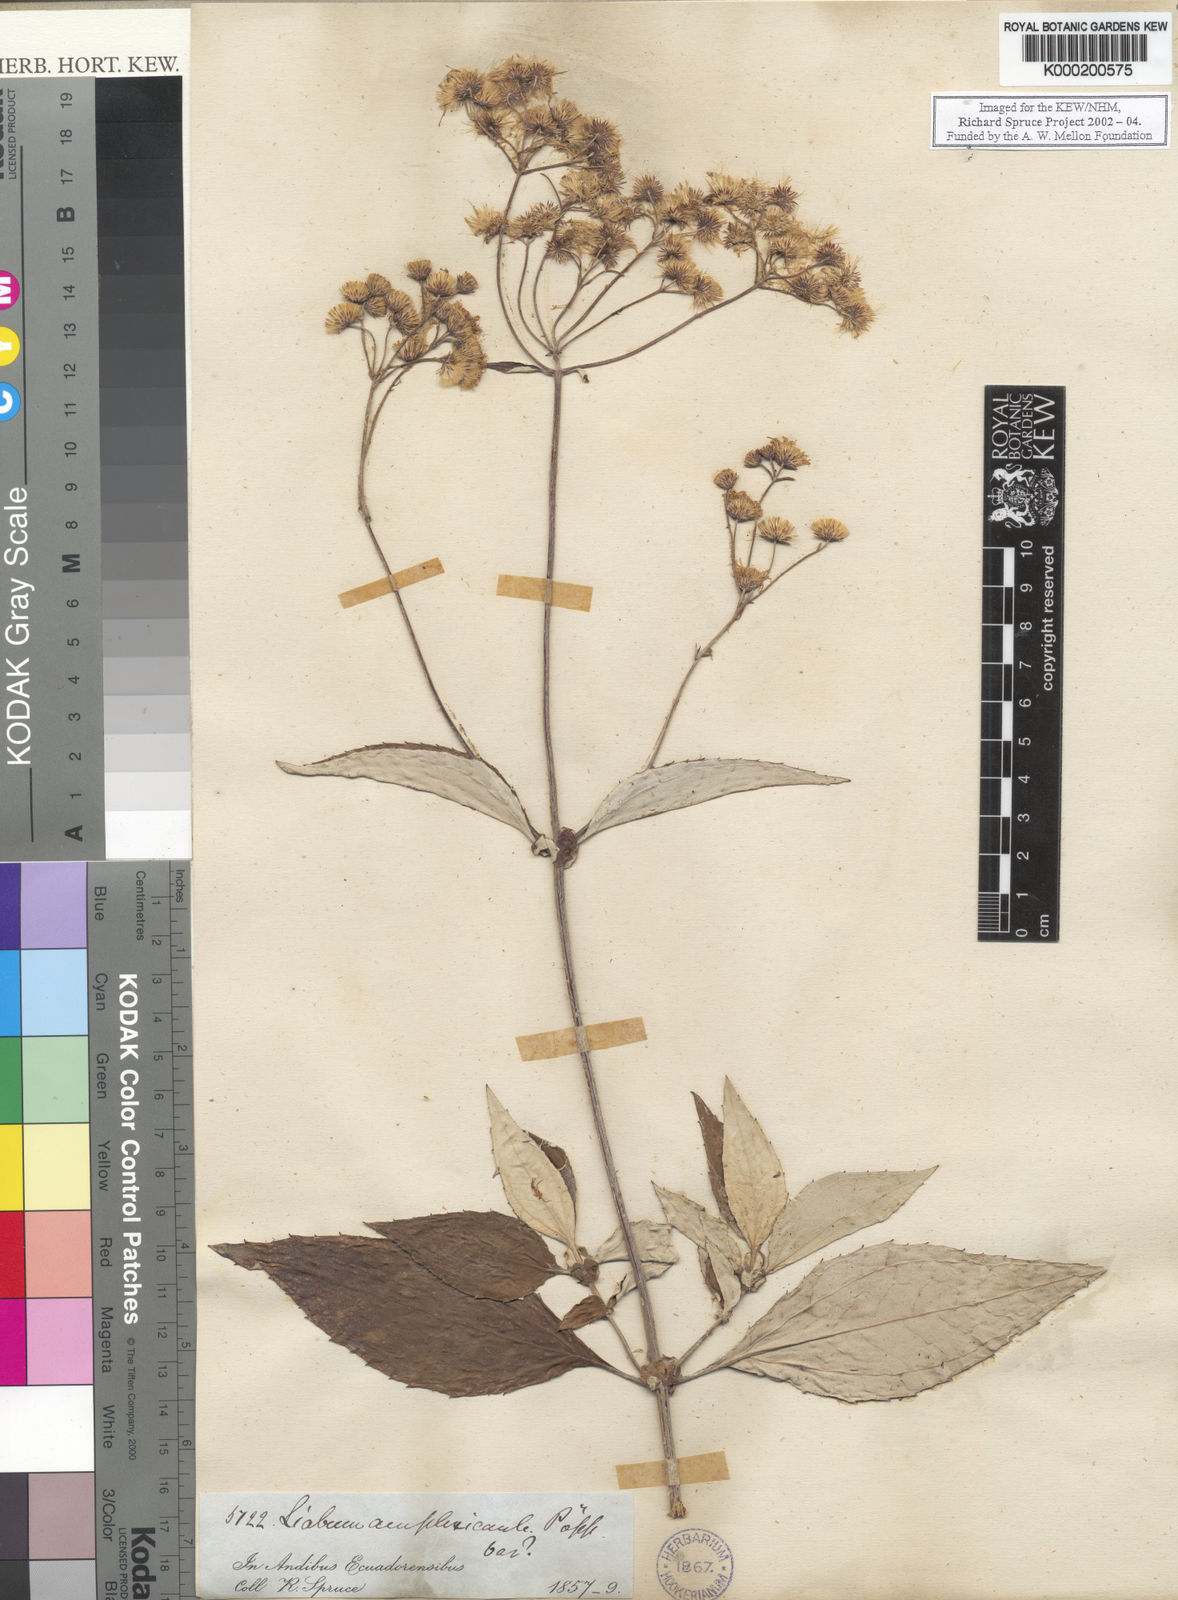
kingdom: Plantae
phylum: Tracheophyta
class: Magnoliopsida
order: Asterales
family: Asteraceae
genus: Liabum
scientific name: Liabum amplexicaule
